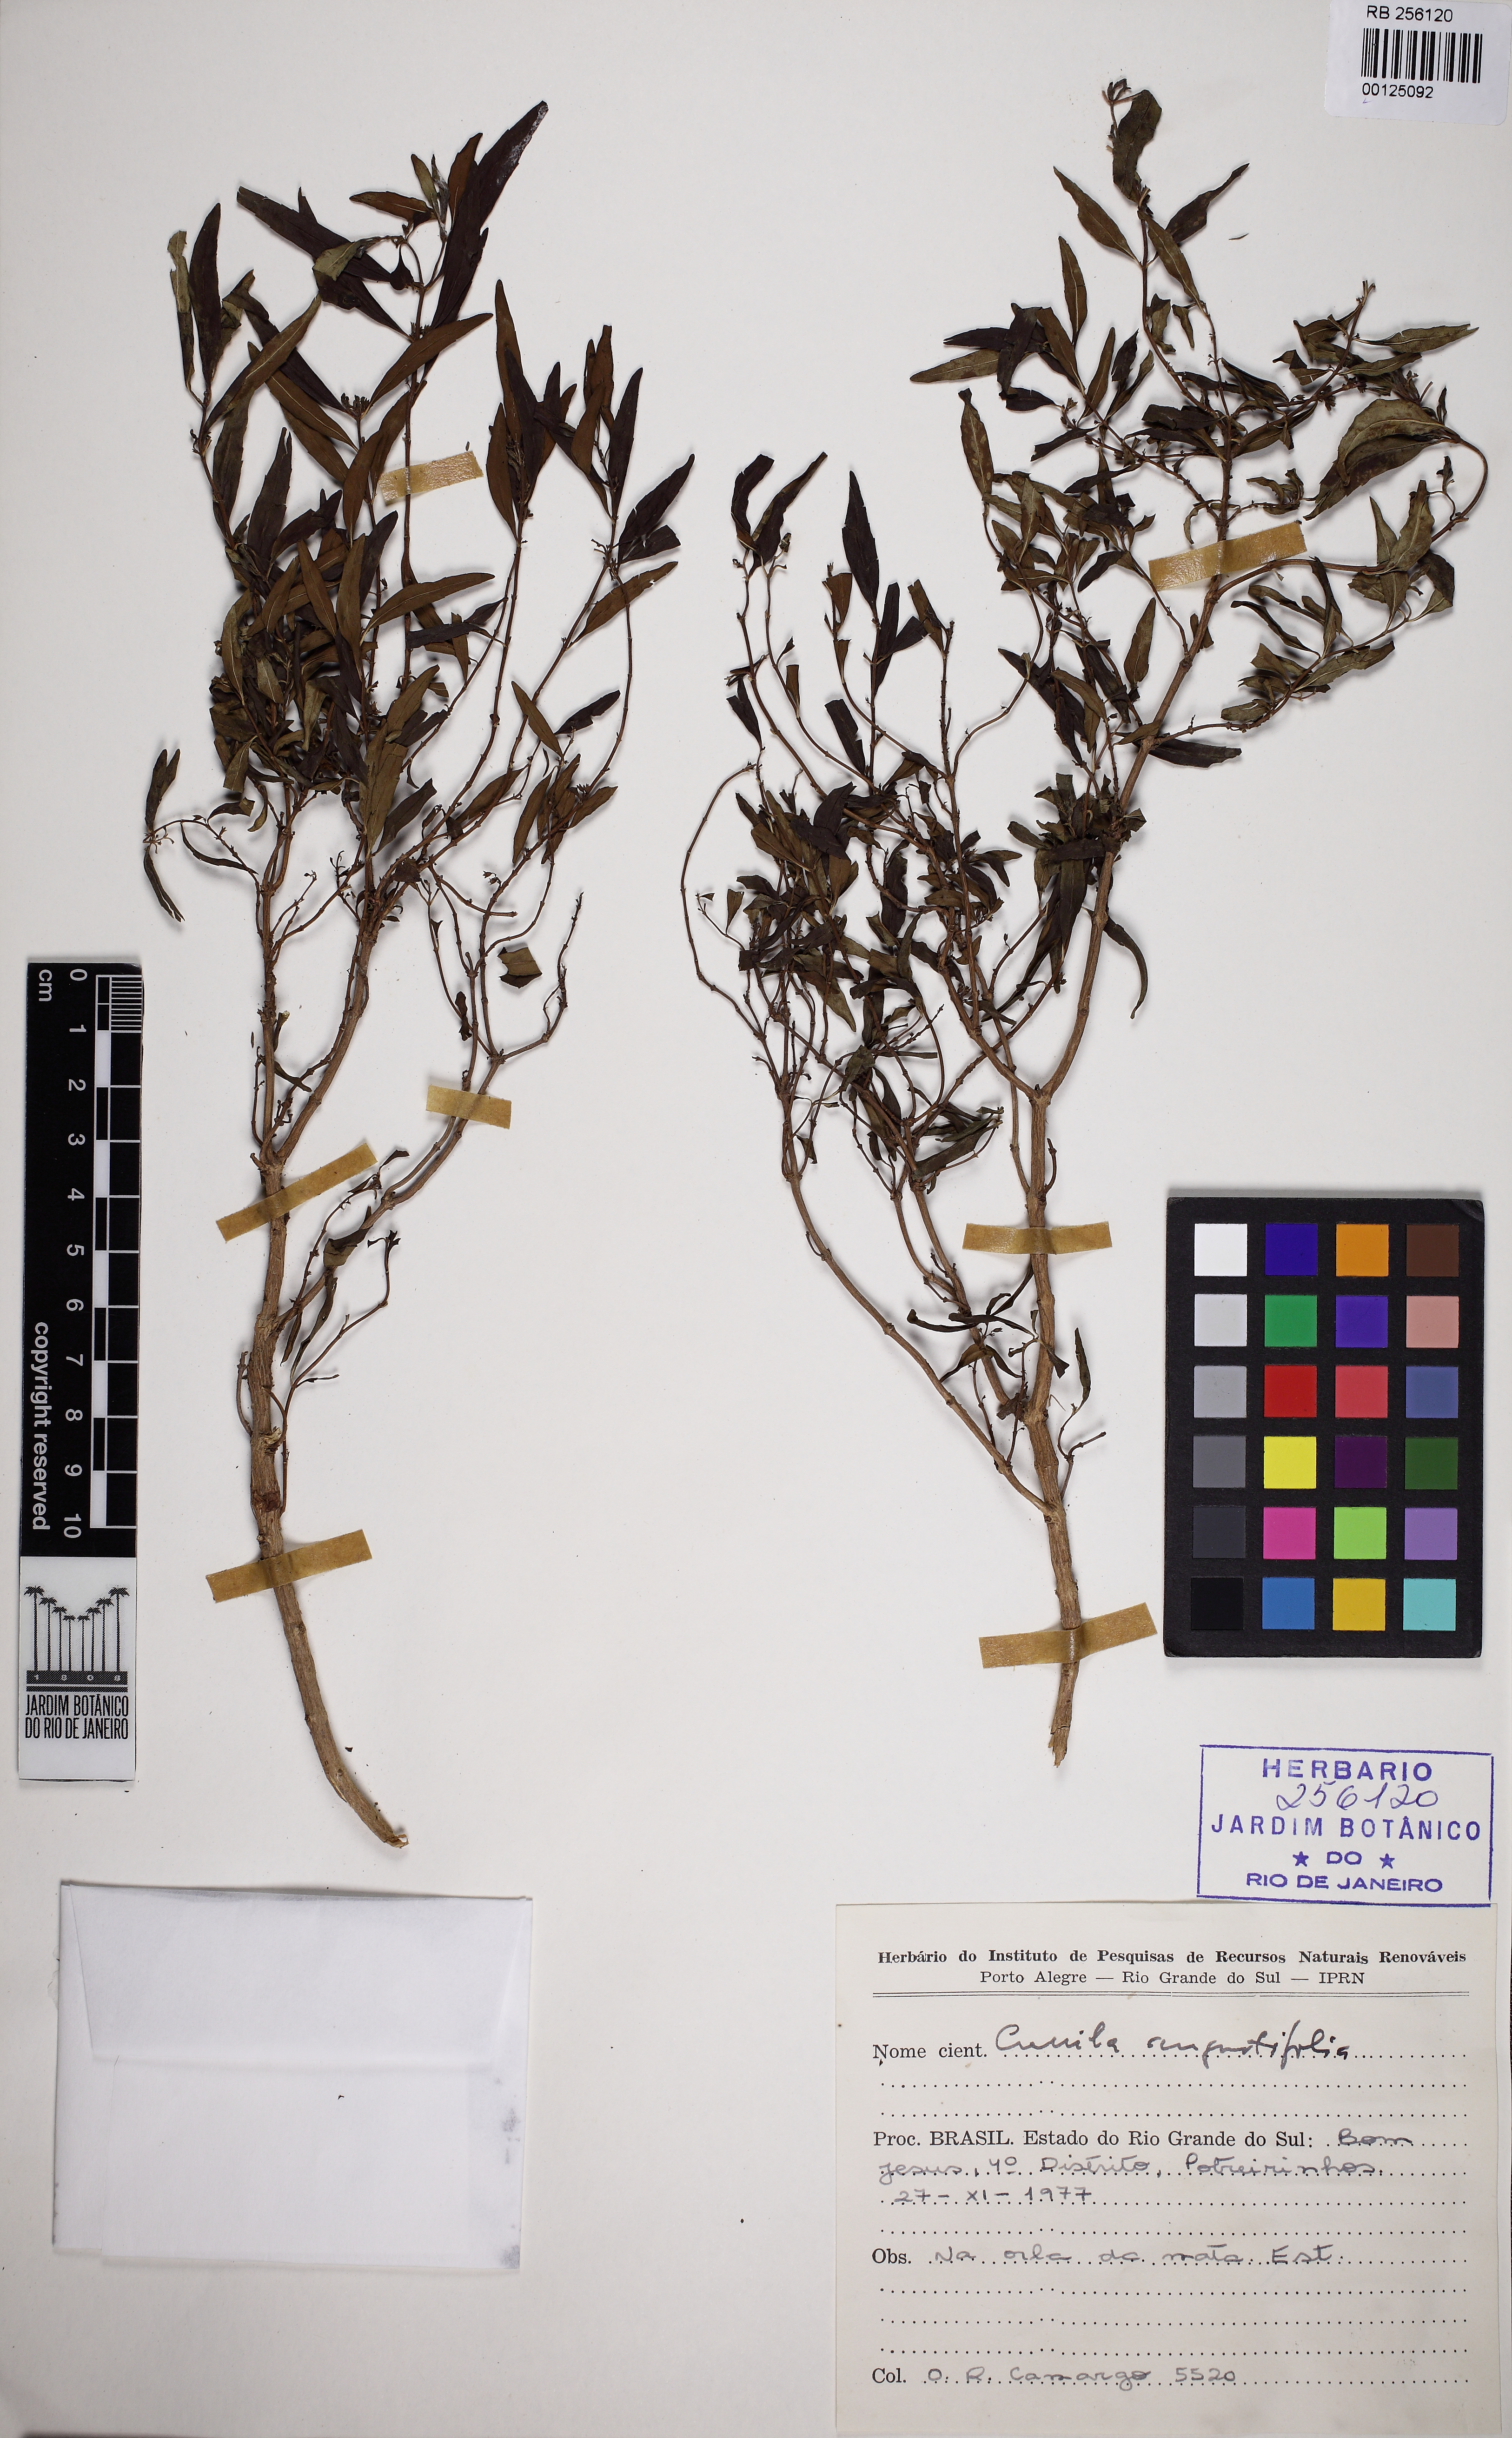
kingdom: Plantae
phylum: Tracheophyta
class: Magnoliopsida
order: Lamiales
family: Lamiaceae
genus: Cunila
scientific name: Cunila angustifolia
